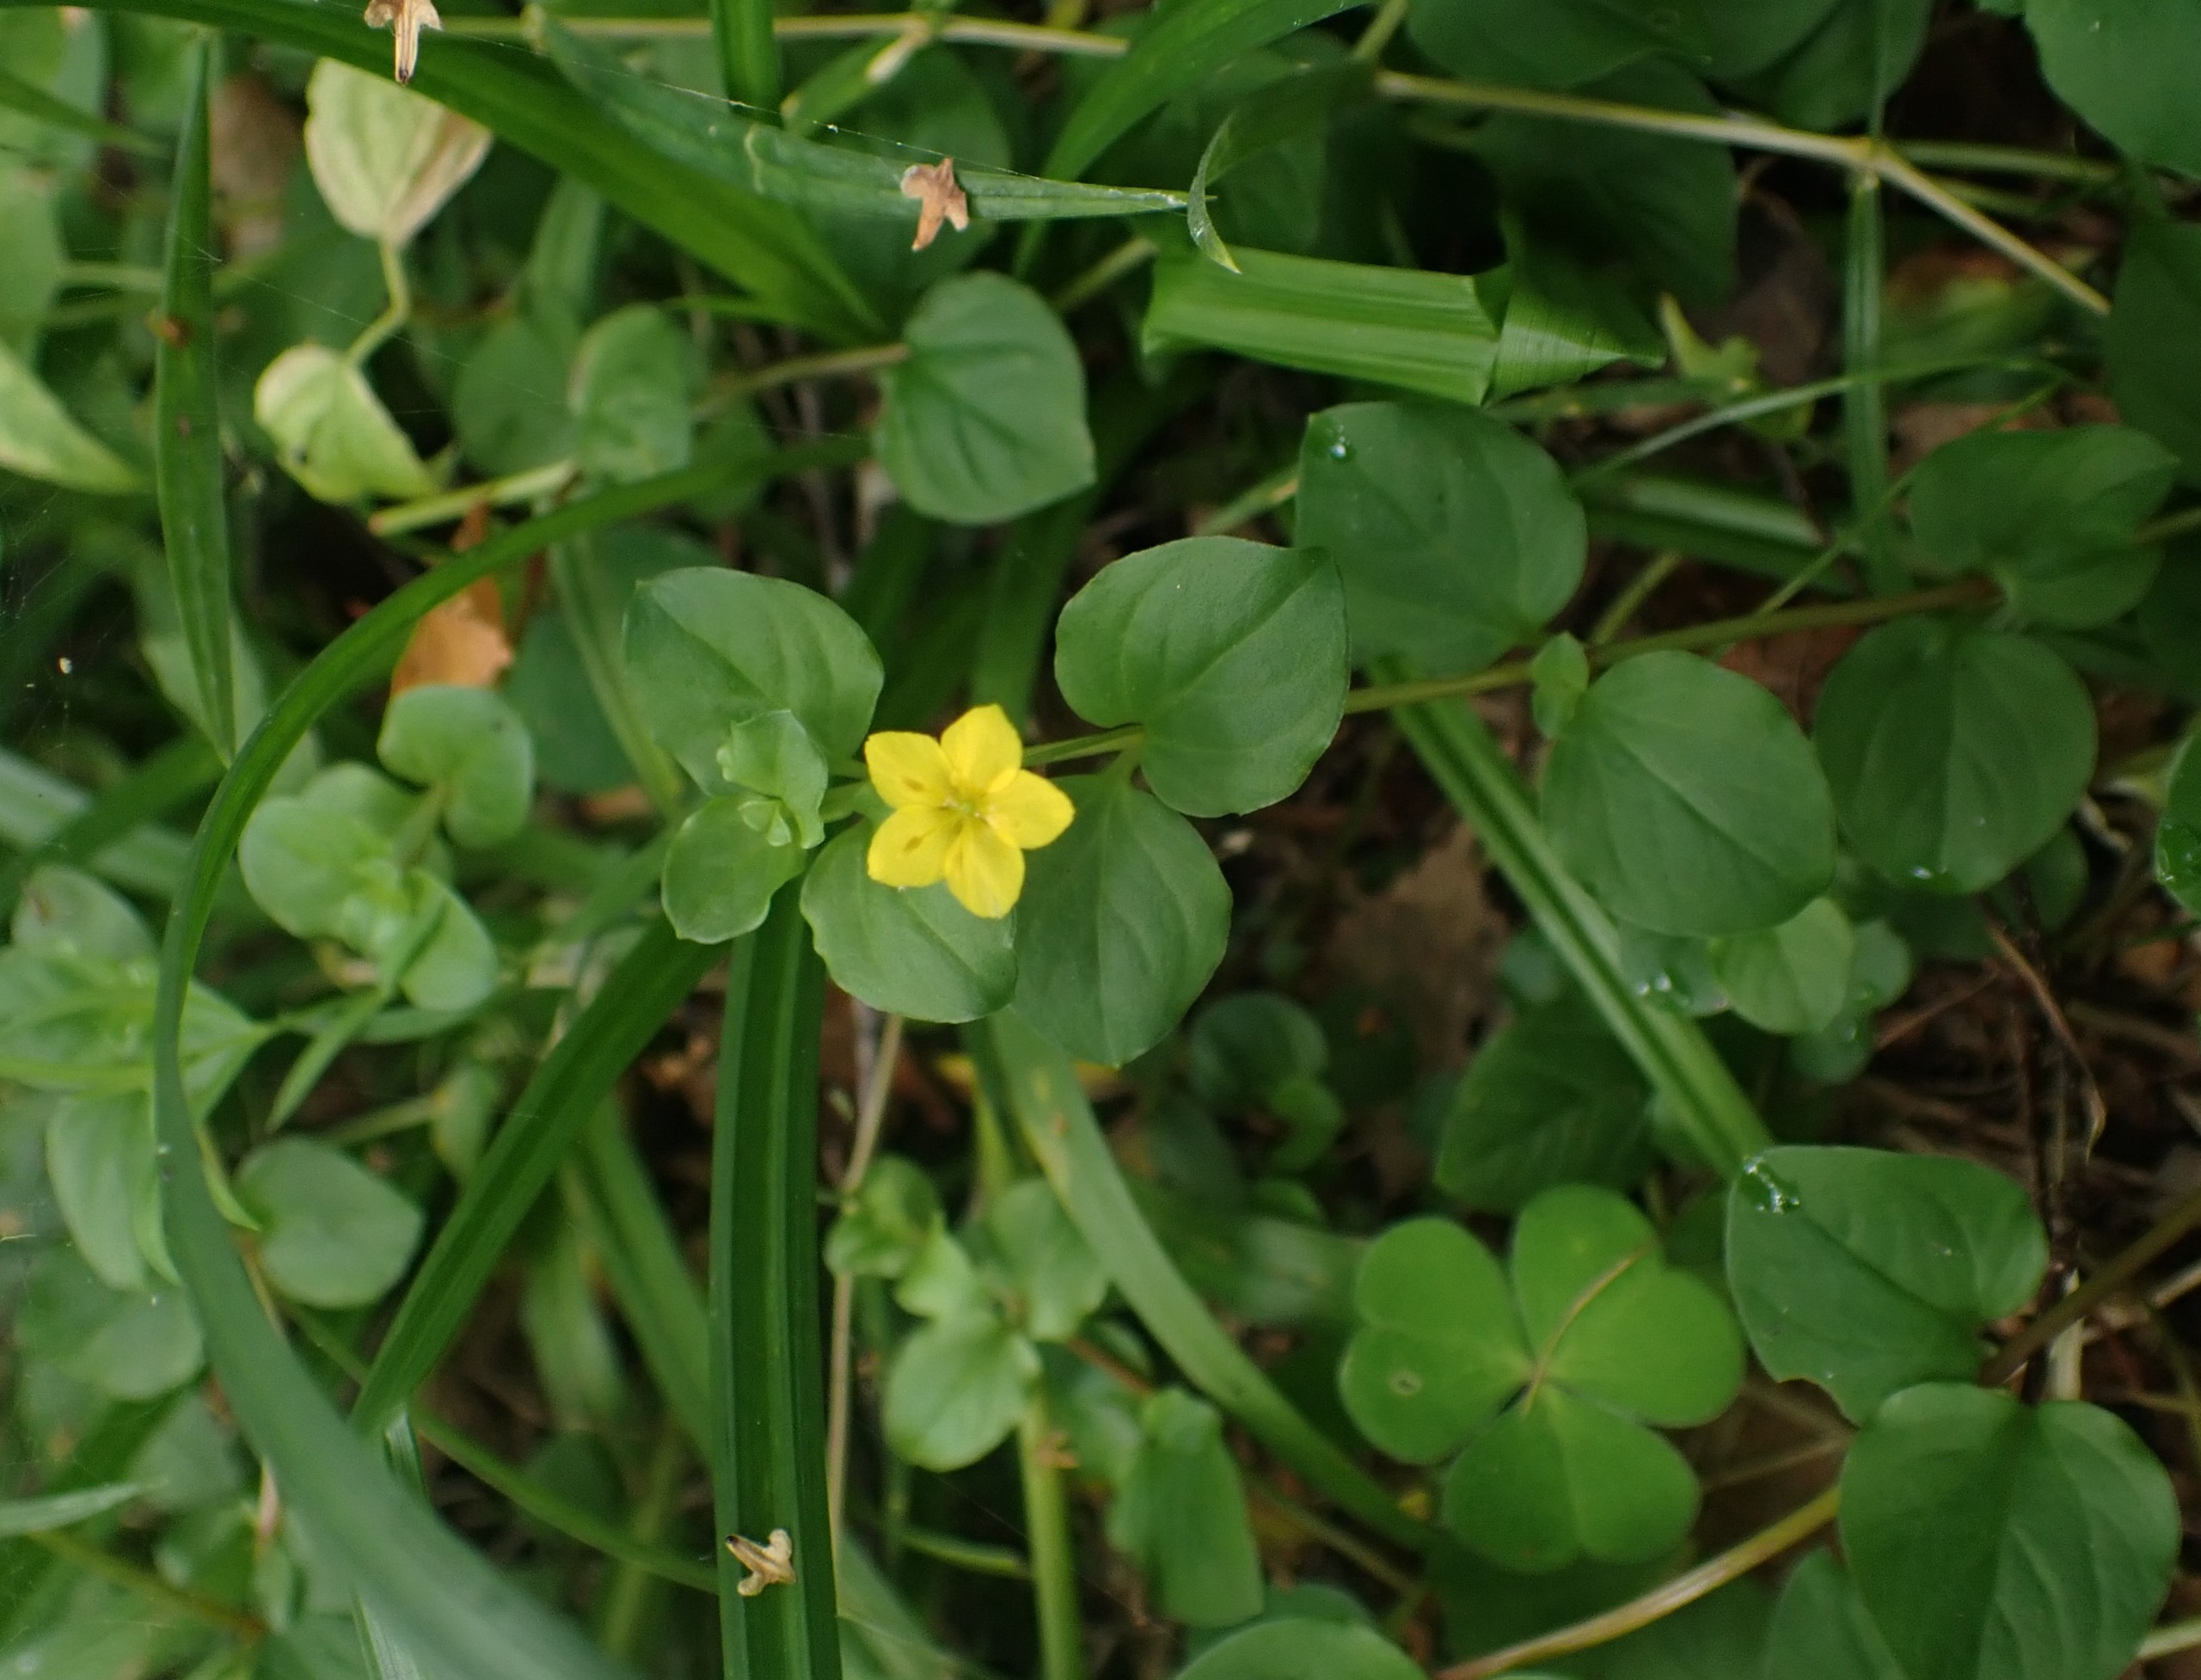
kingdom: Plantae
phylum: Tracheophyta
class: Magnoliopsida
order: Ericales
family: Primulaceae
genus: Lysimachia
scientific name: Lysimachia nemorum
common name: Lund-fredløs
